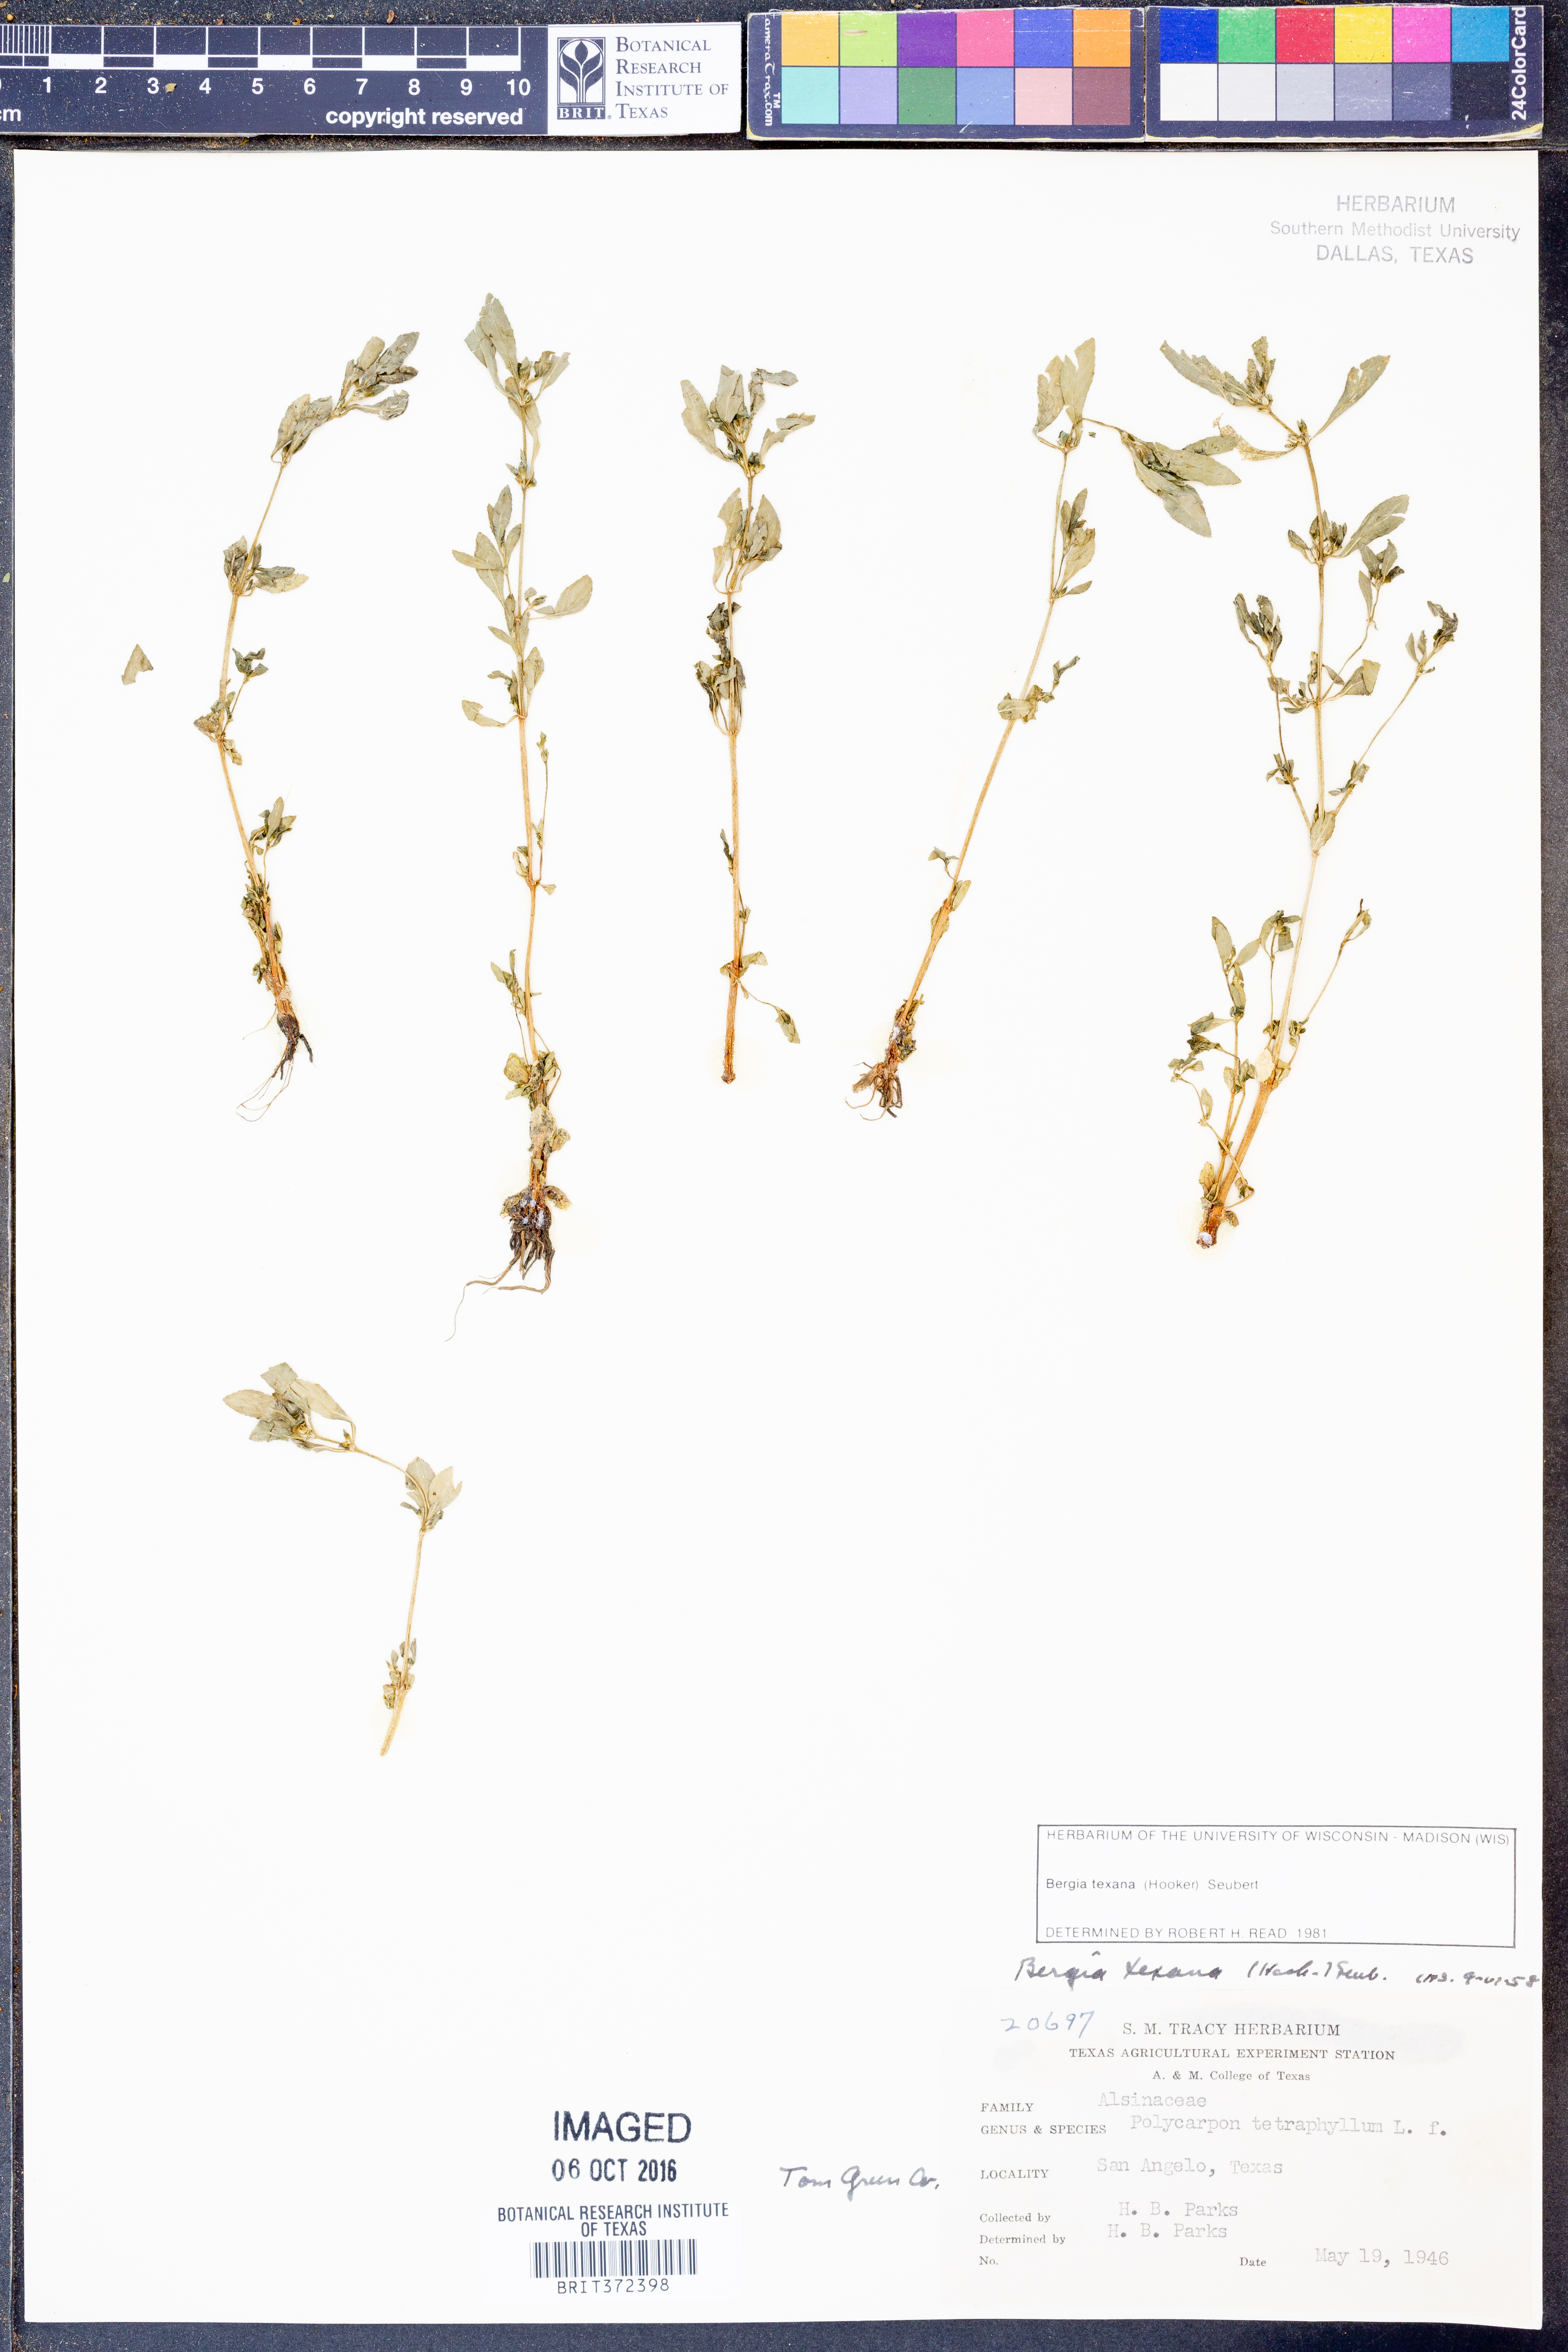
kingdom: Plantae
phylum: Tracheophyta
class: Magnoliopsida
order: Malpighiales
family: Elatinaceae
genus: Bergia
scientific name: Bergia texana
